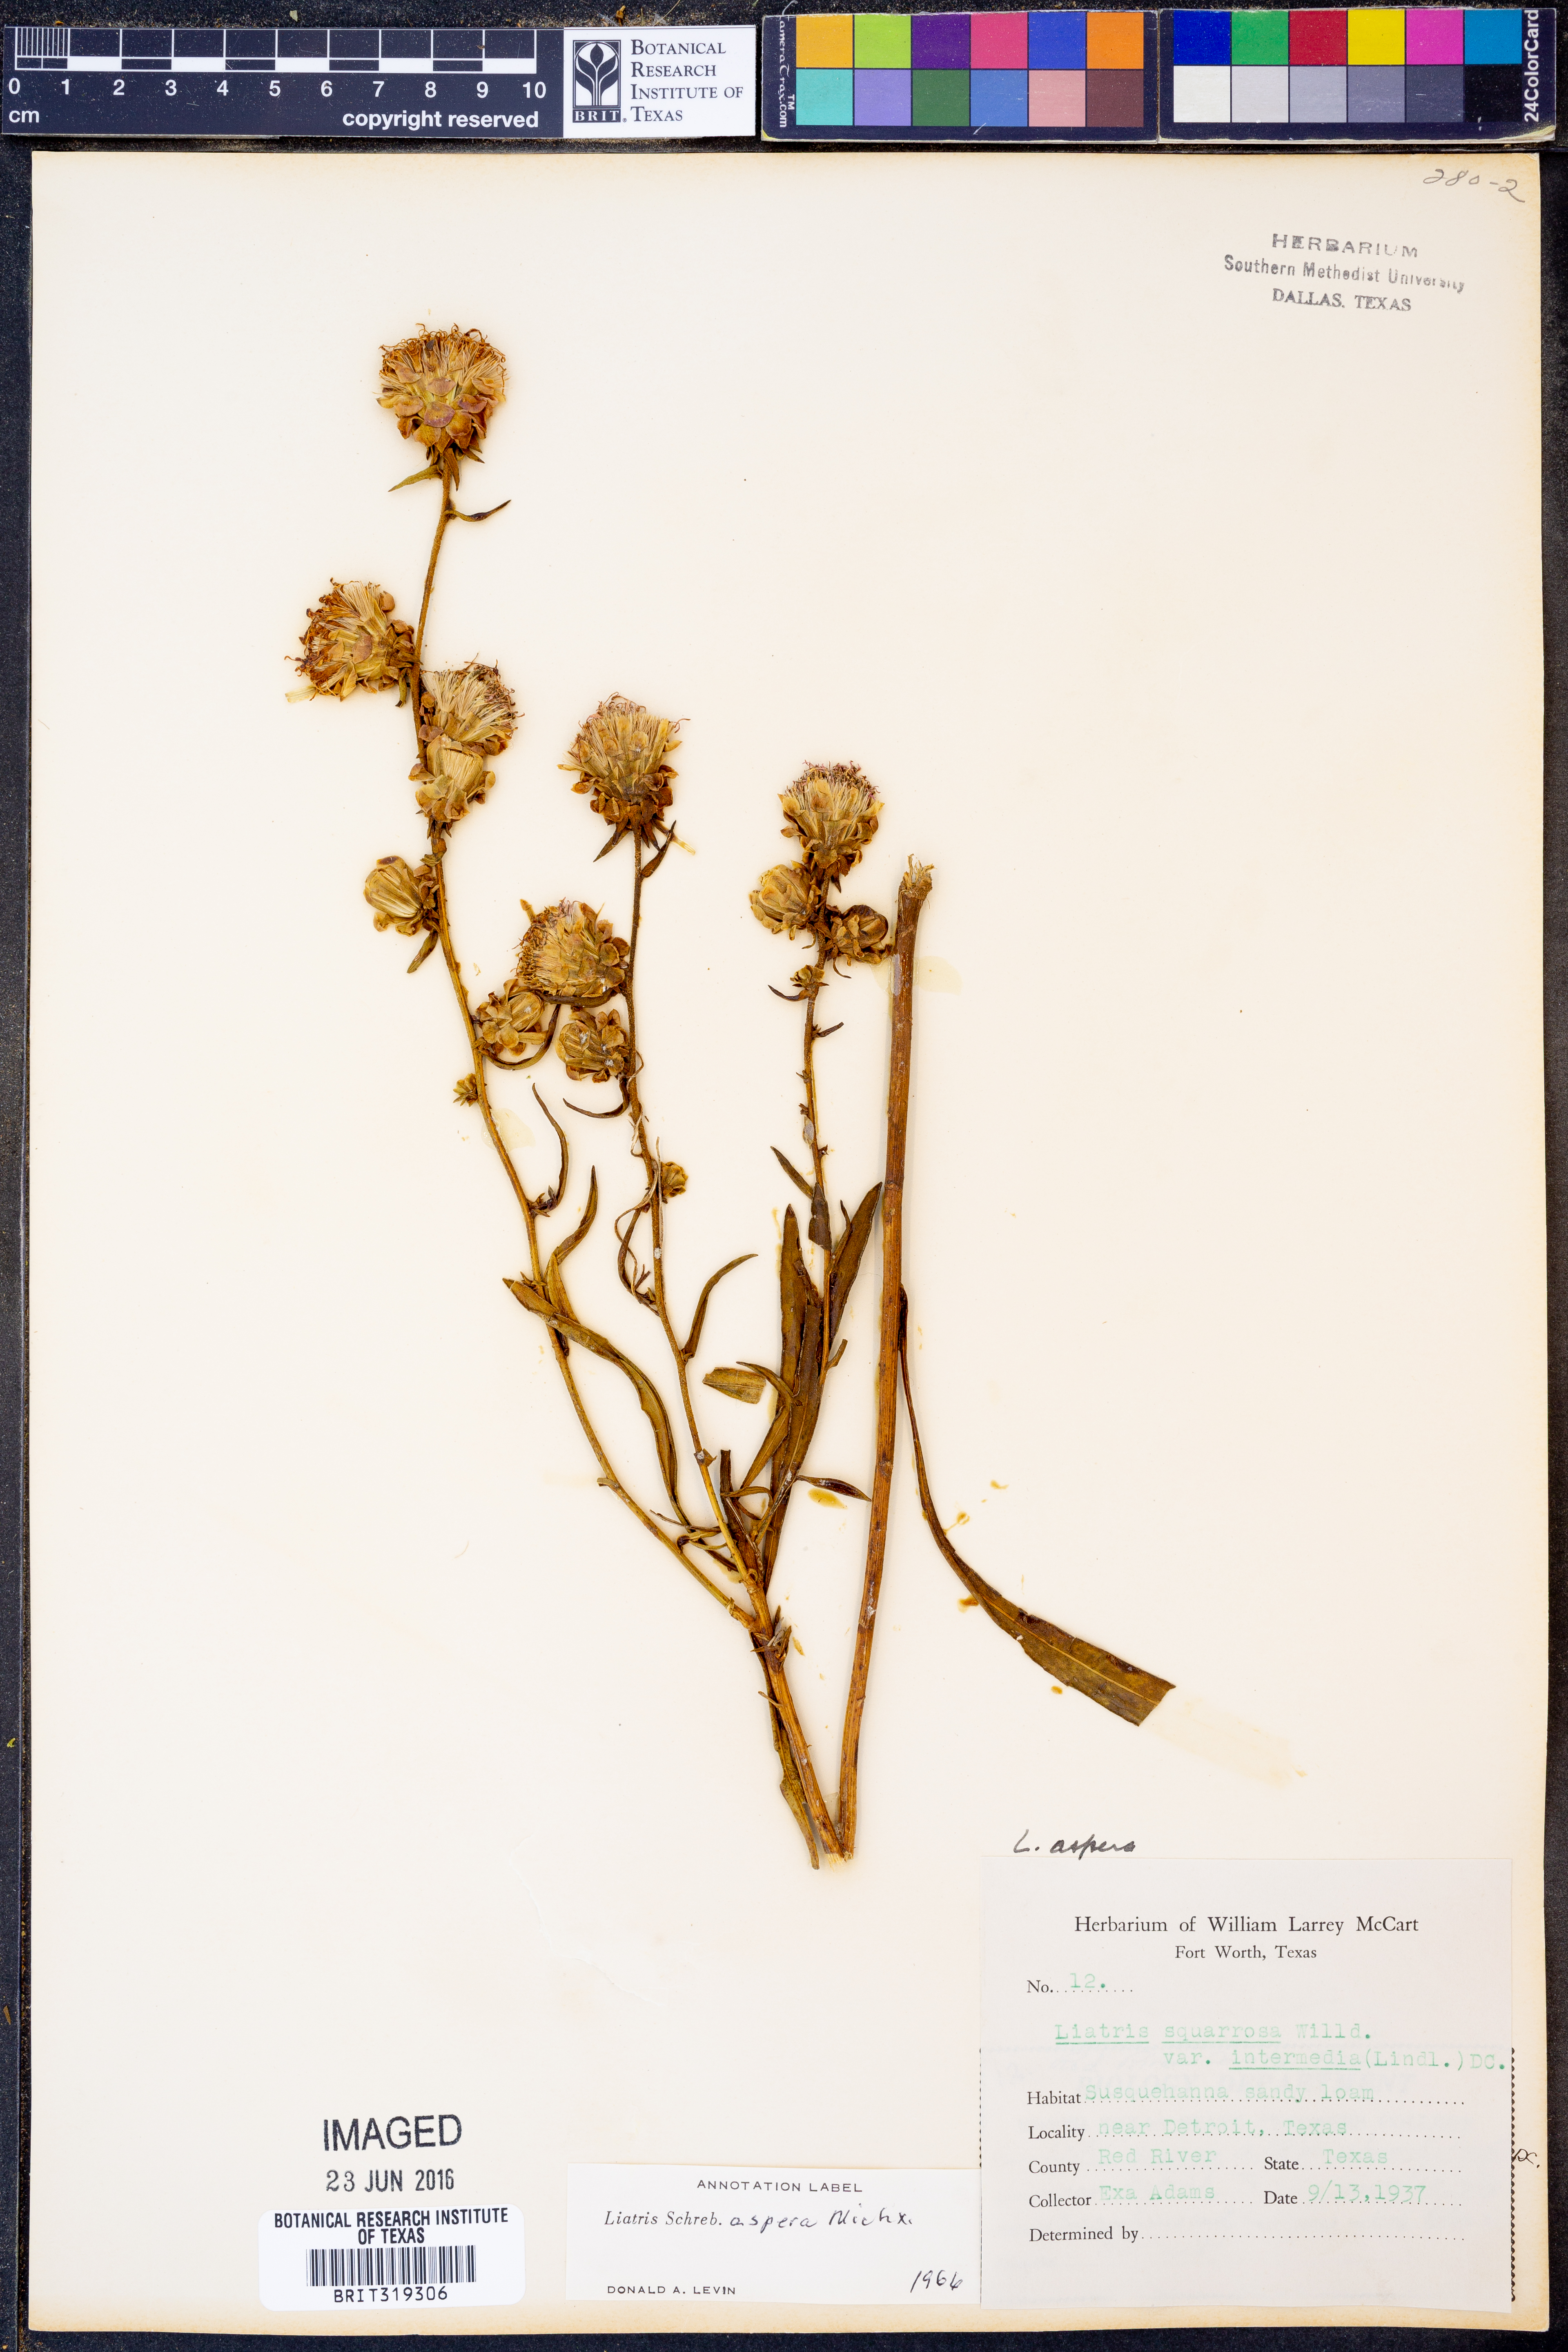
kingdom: Plantae
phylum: Tracheophyta
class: Magnoliopsida
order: Asterales
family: Asteraceae
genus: Liatris
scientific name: Liatris aspera
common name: Lacerate blazing-star
